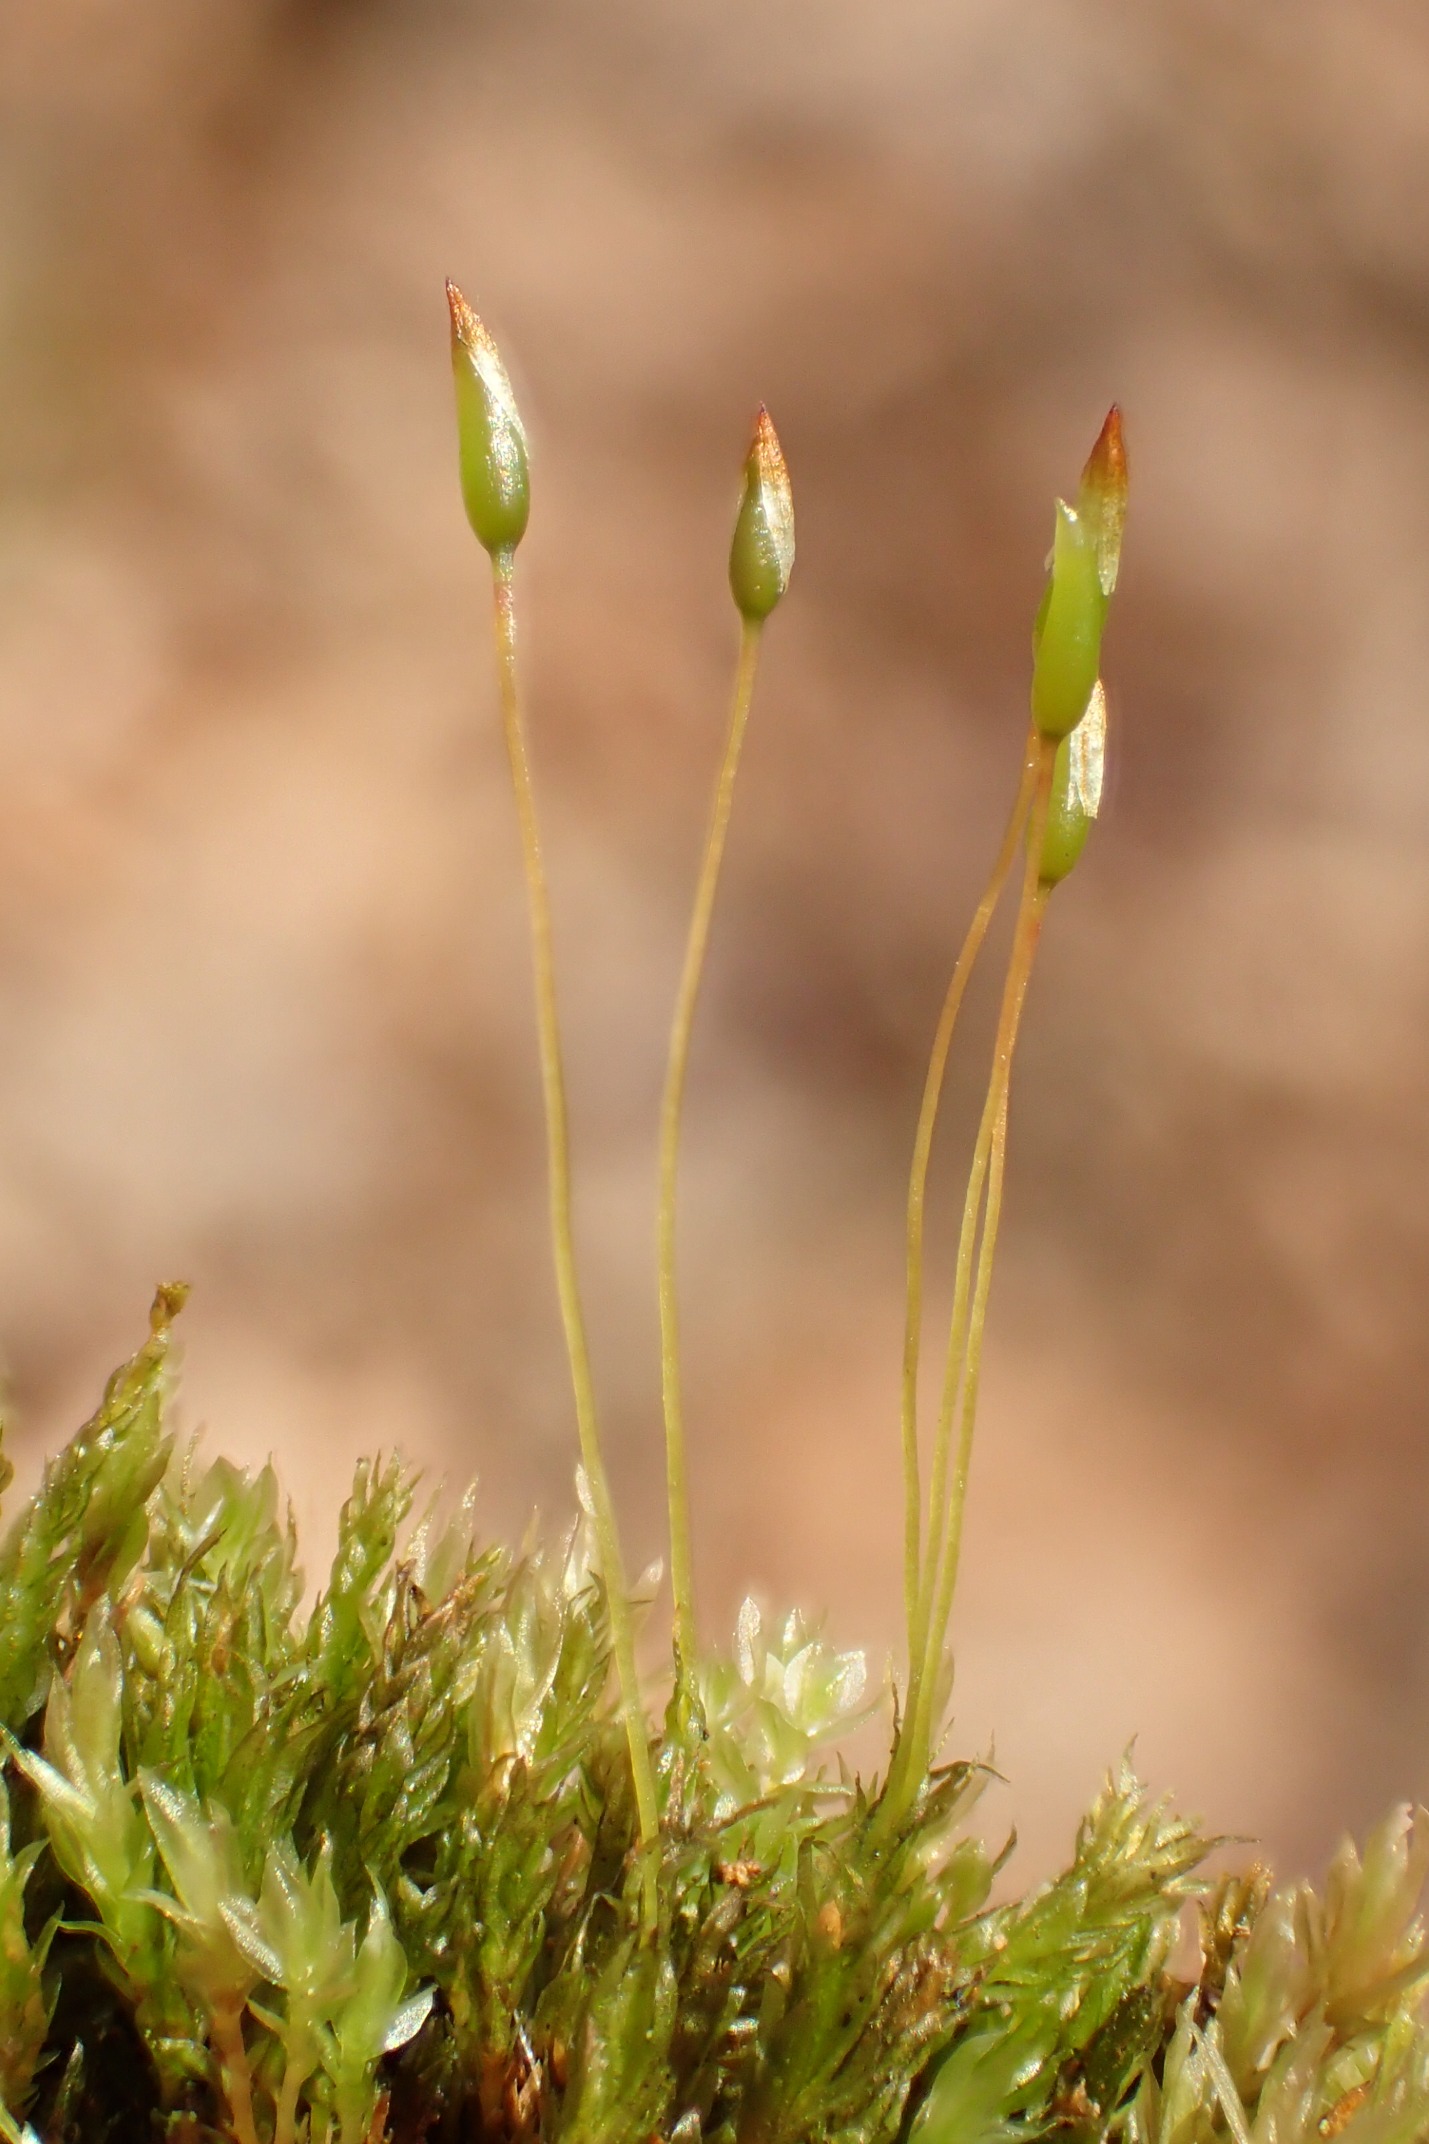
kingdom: Plantae
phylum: Bryophyta
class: Polytrichopsida
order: Tetraphidales
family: Tetraphidaceae
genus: Tetraphis
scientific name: Tetraphis pellucida
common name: Almindelig firtand
